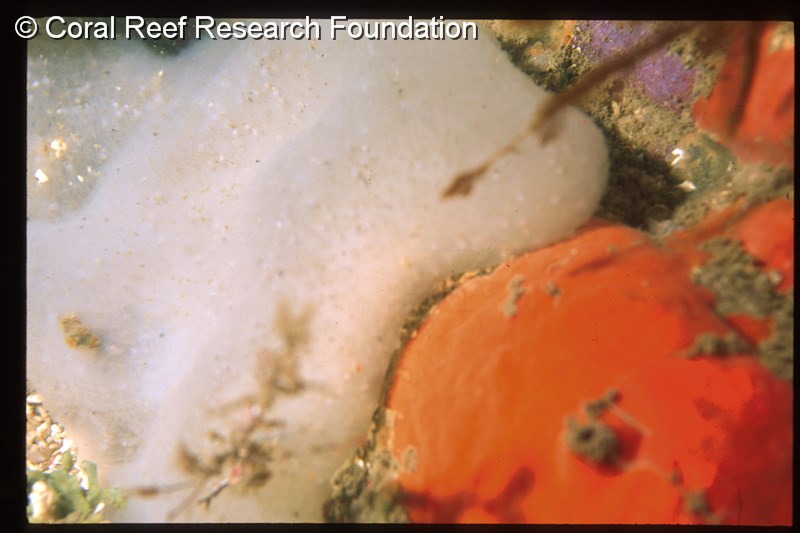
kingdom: Animalia
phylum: Chordata
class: Ascidiacea
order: Aplousobranchia
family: Pseudodistomidae
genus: Pseudodistoma
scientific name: Pseudodistoma
